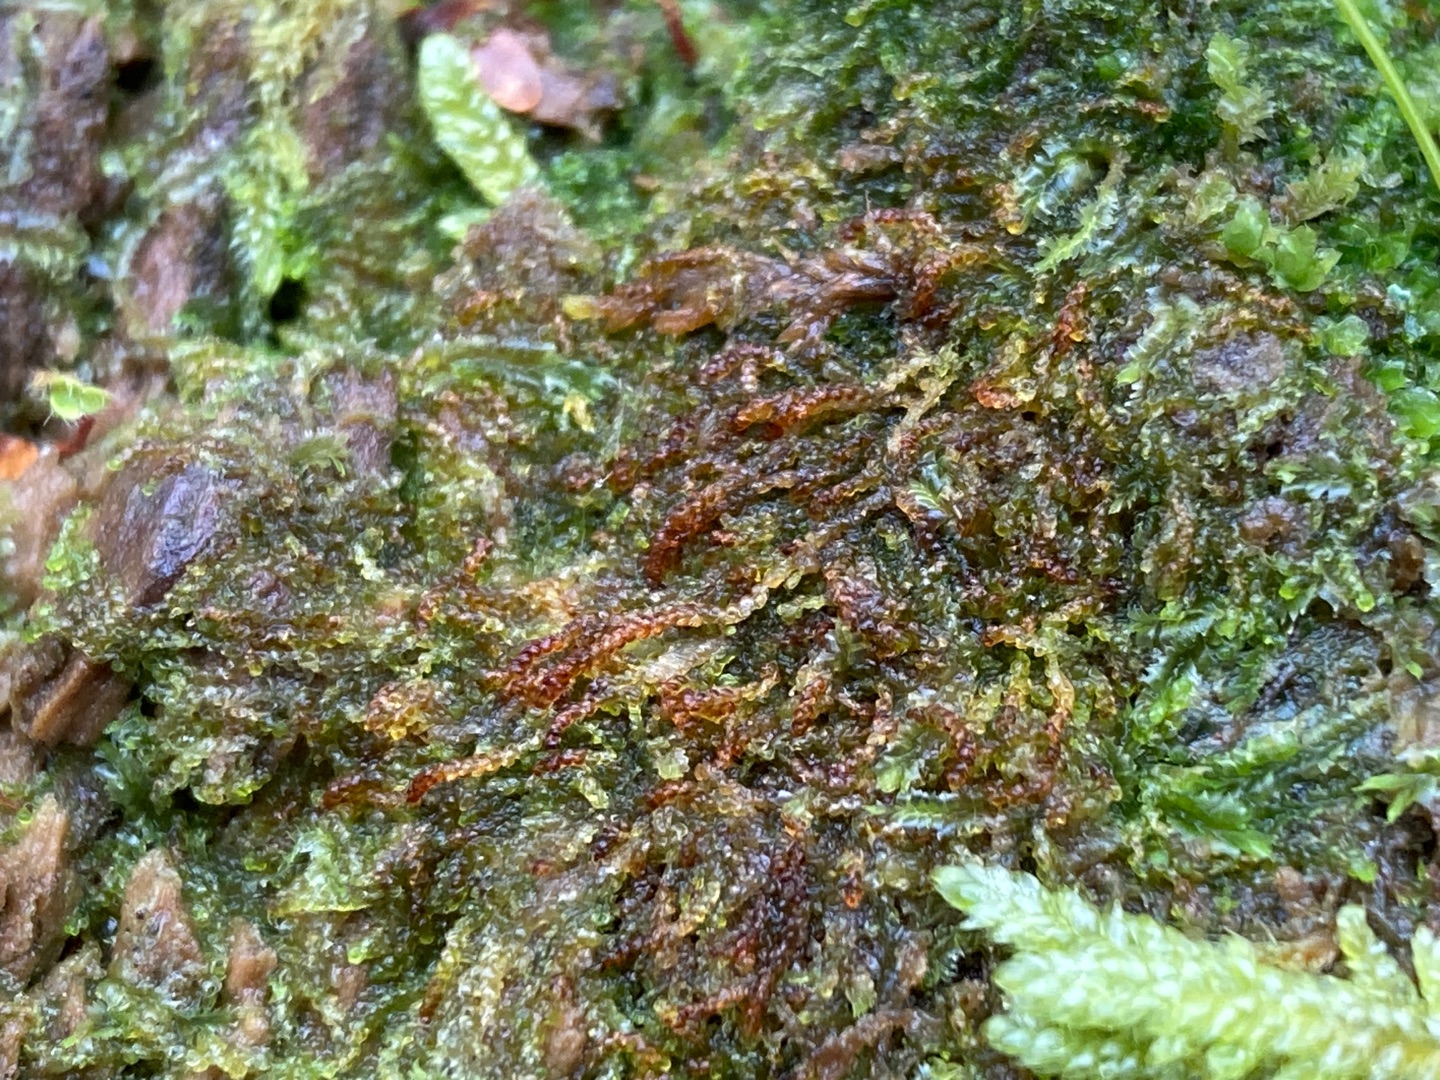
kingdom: Plantae
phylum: Marchantiophyta
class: Jungermanniopsida
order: Jungermanniales
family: Cephaloziaceae
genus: Nowellia
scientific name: Nowellia curvifolia
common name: Krumbladet stødmos
